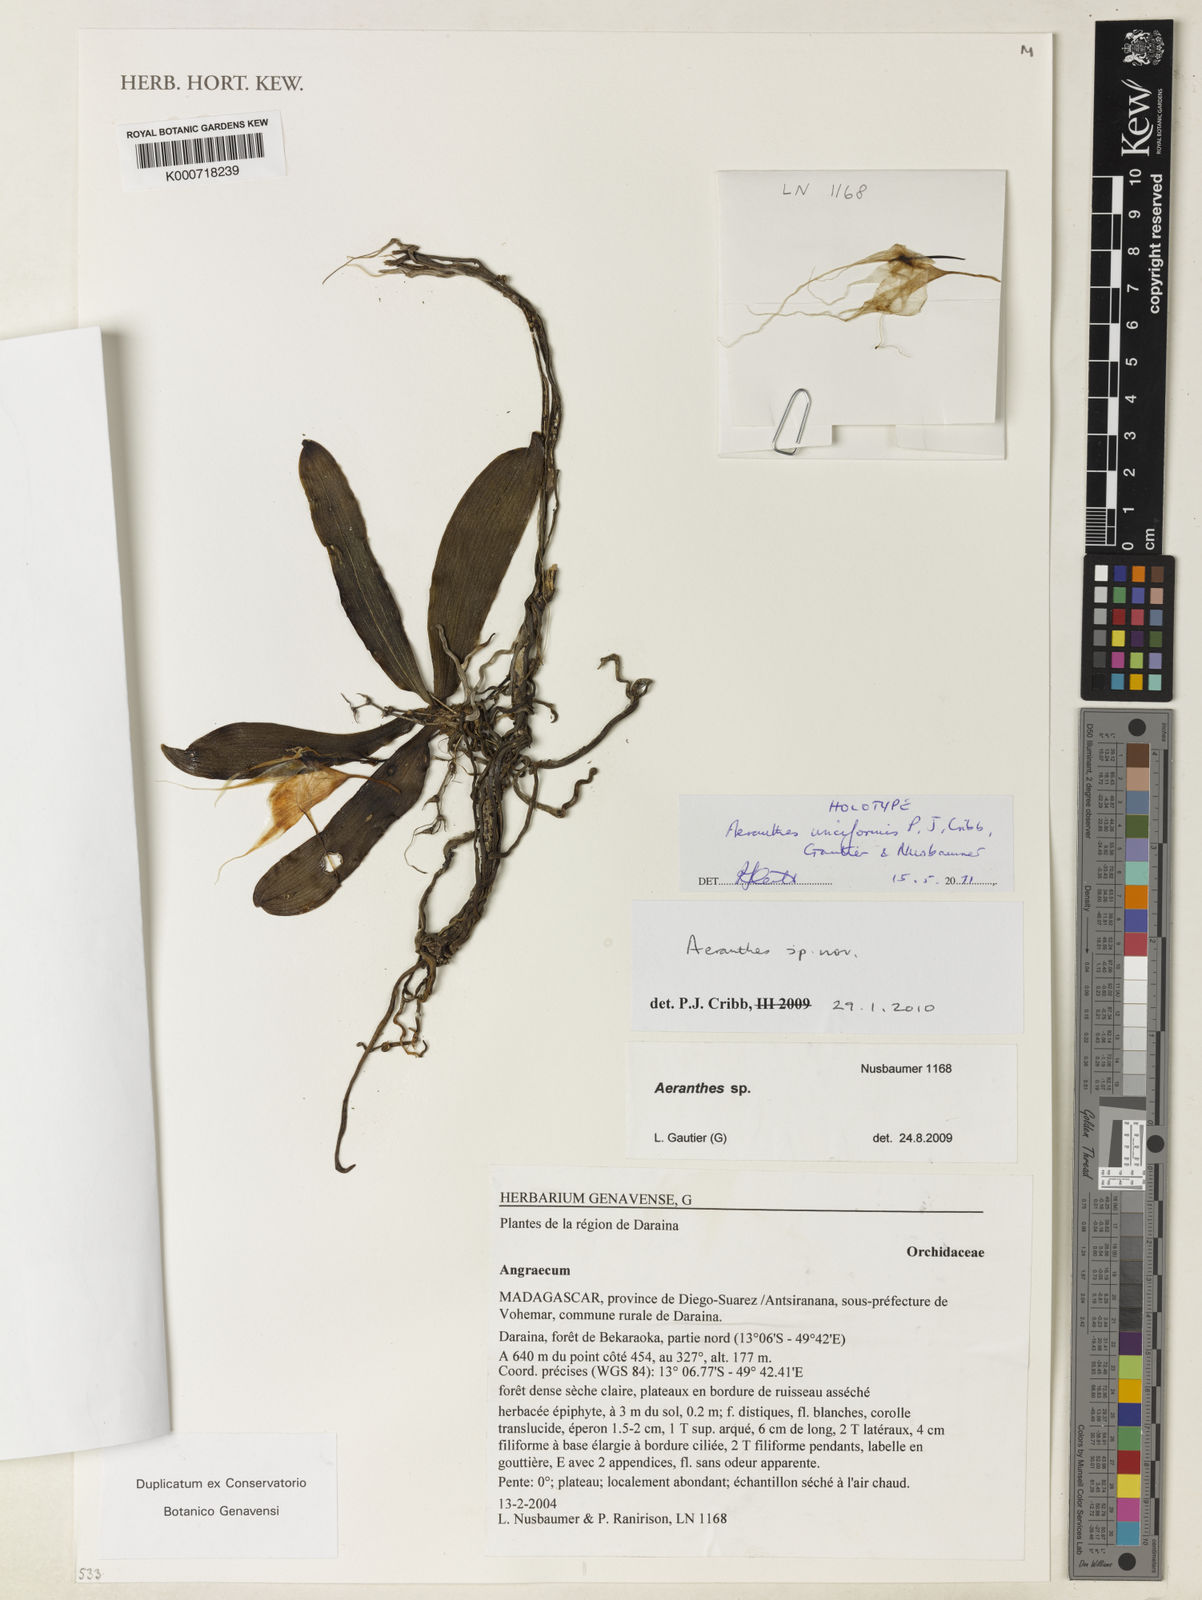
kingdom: Plantae
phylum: Tracheophyta
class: Liliopsida
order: Asparagales
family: Orchidaceae
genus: Aeranthes
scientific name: Aeranthes unciformis
